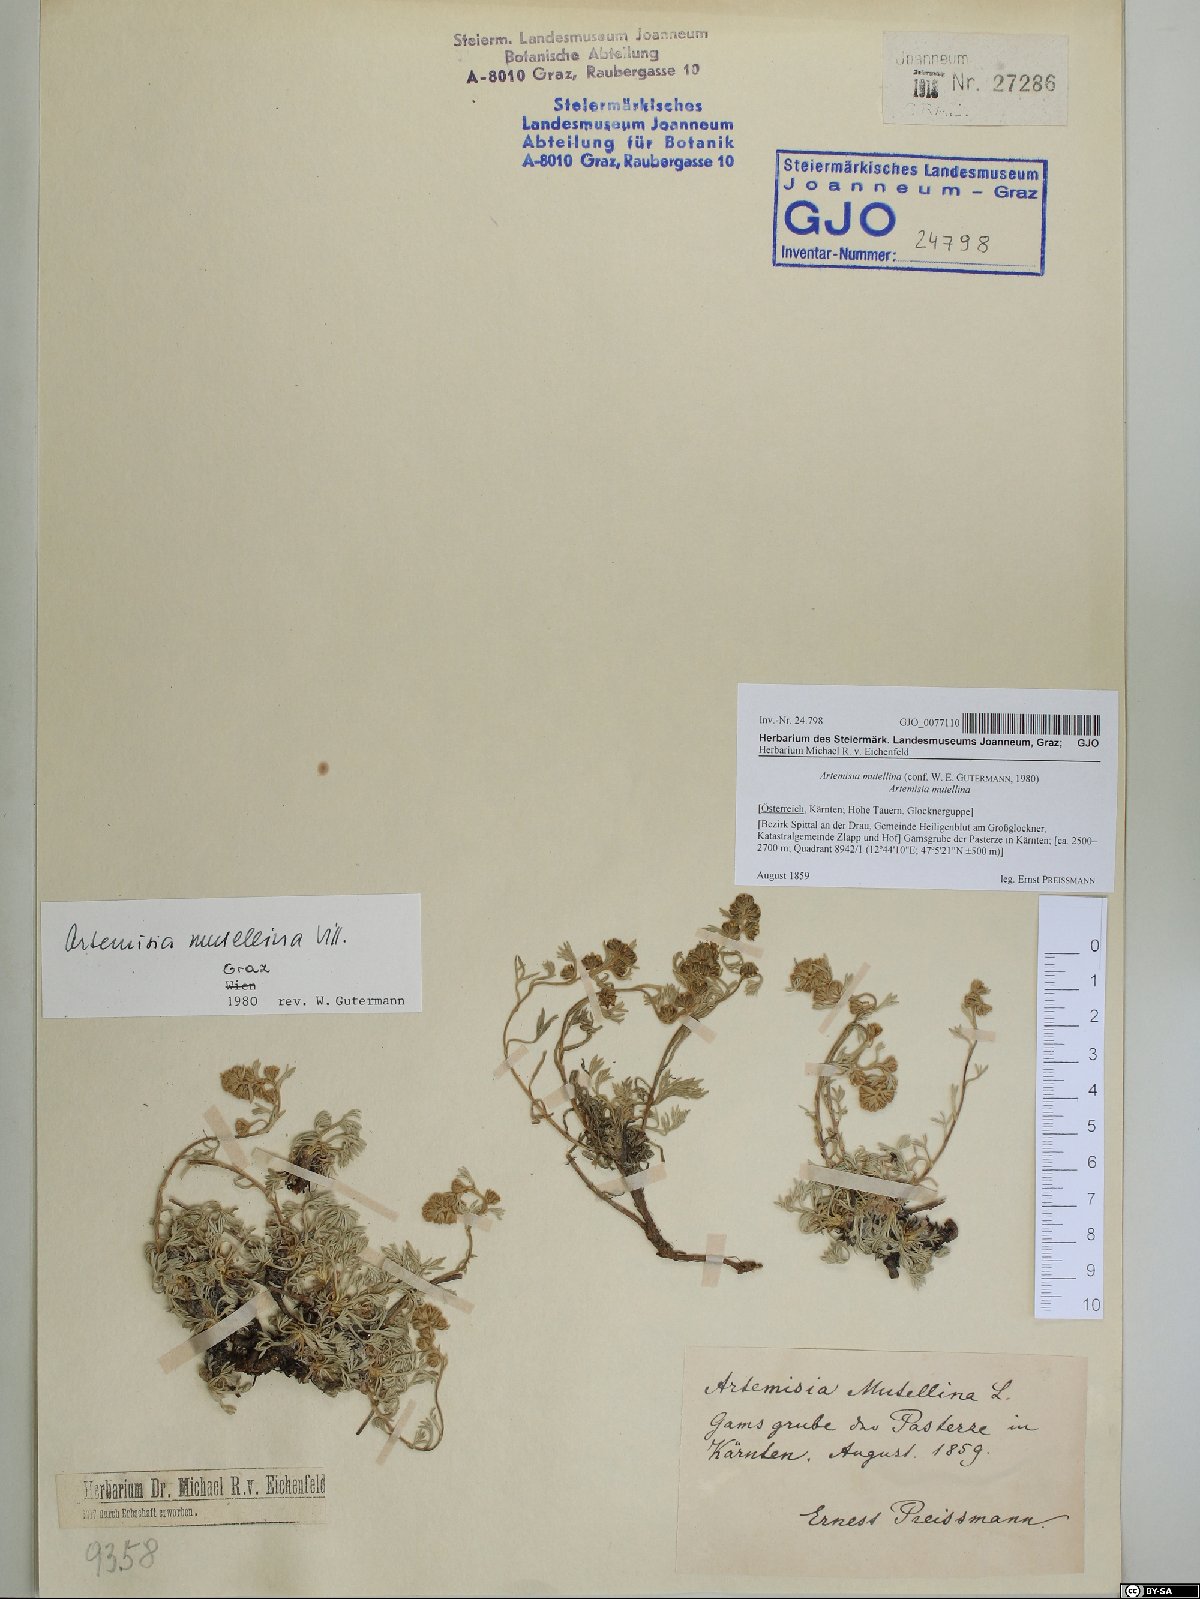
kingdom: Plantae
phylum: Tracheophyta
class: Magnoliopsida
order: Asterales
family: Asteraceae
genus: Artemisia
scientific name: Artemisia mutellina
